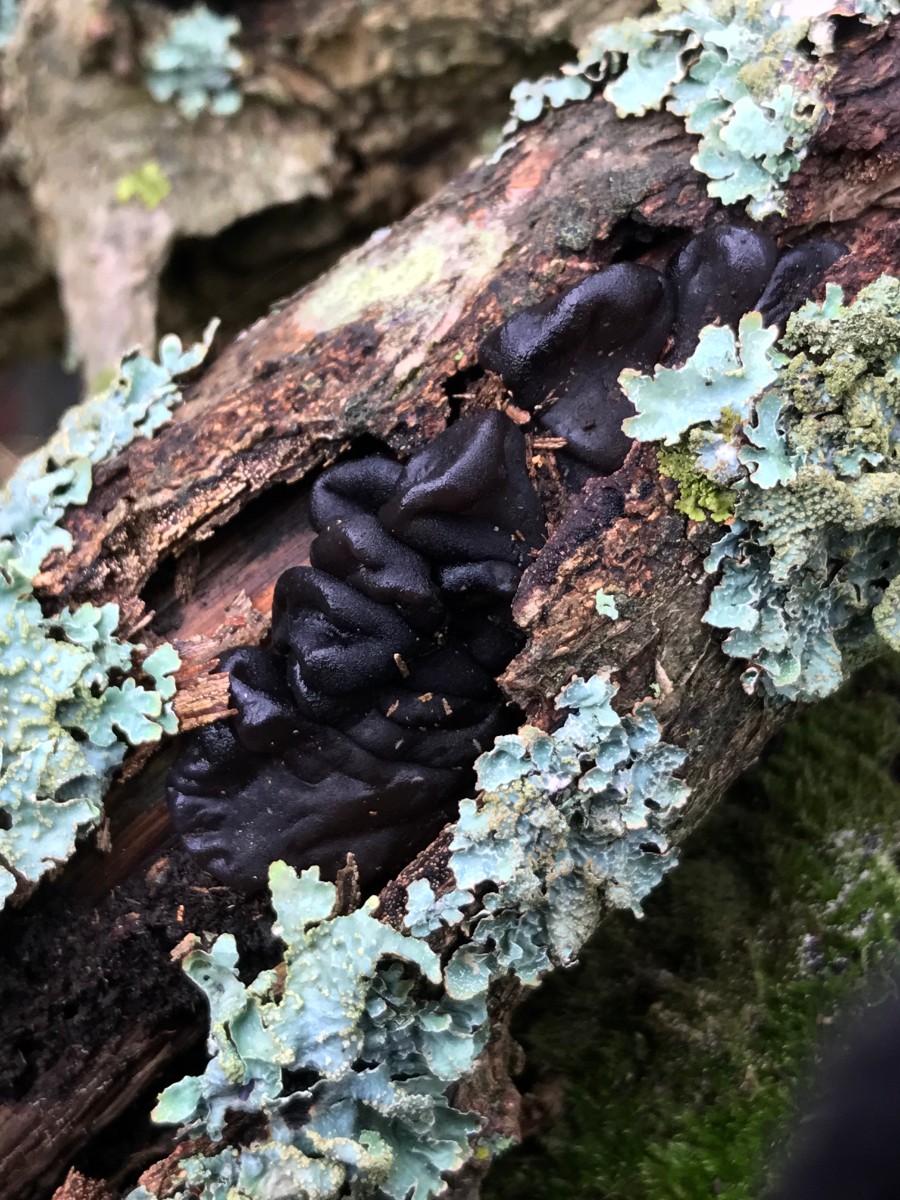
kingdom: Fungi
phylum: Basidiomycota
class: Agaricomycetes
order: Auriculariales
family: Auriculariaceae
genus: Exidia
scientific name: Exidia glandulosa
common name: ege-bævretop
